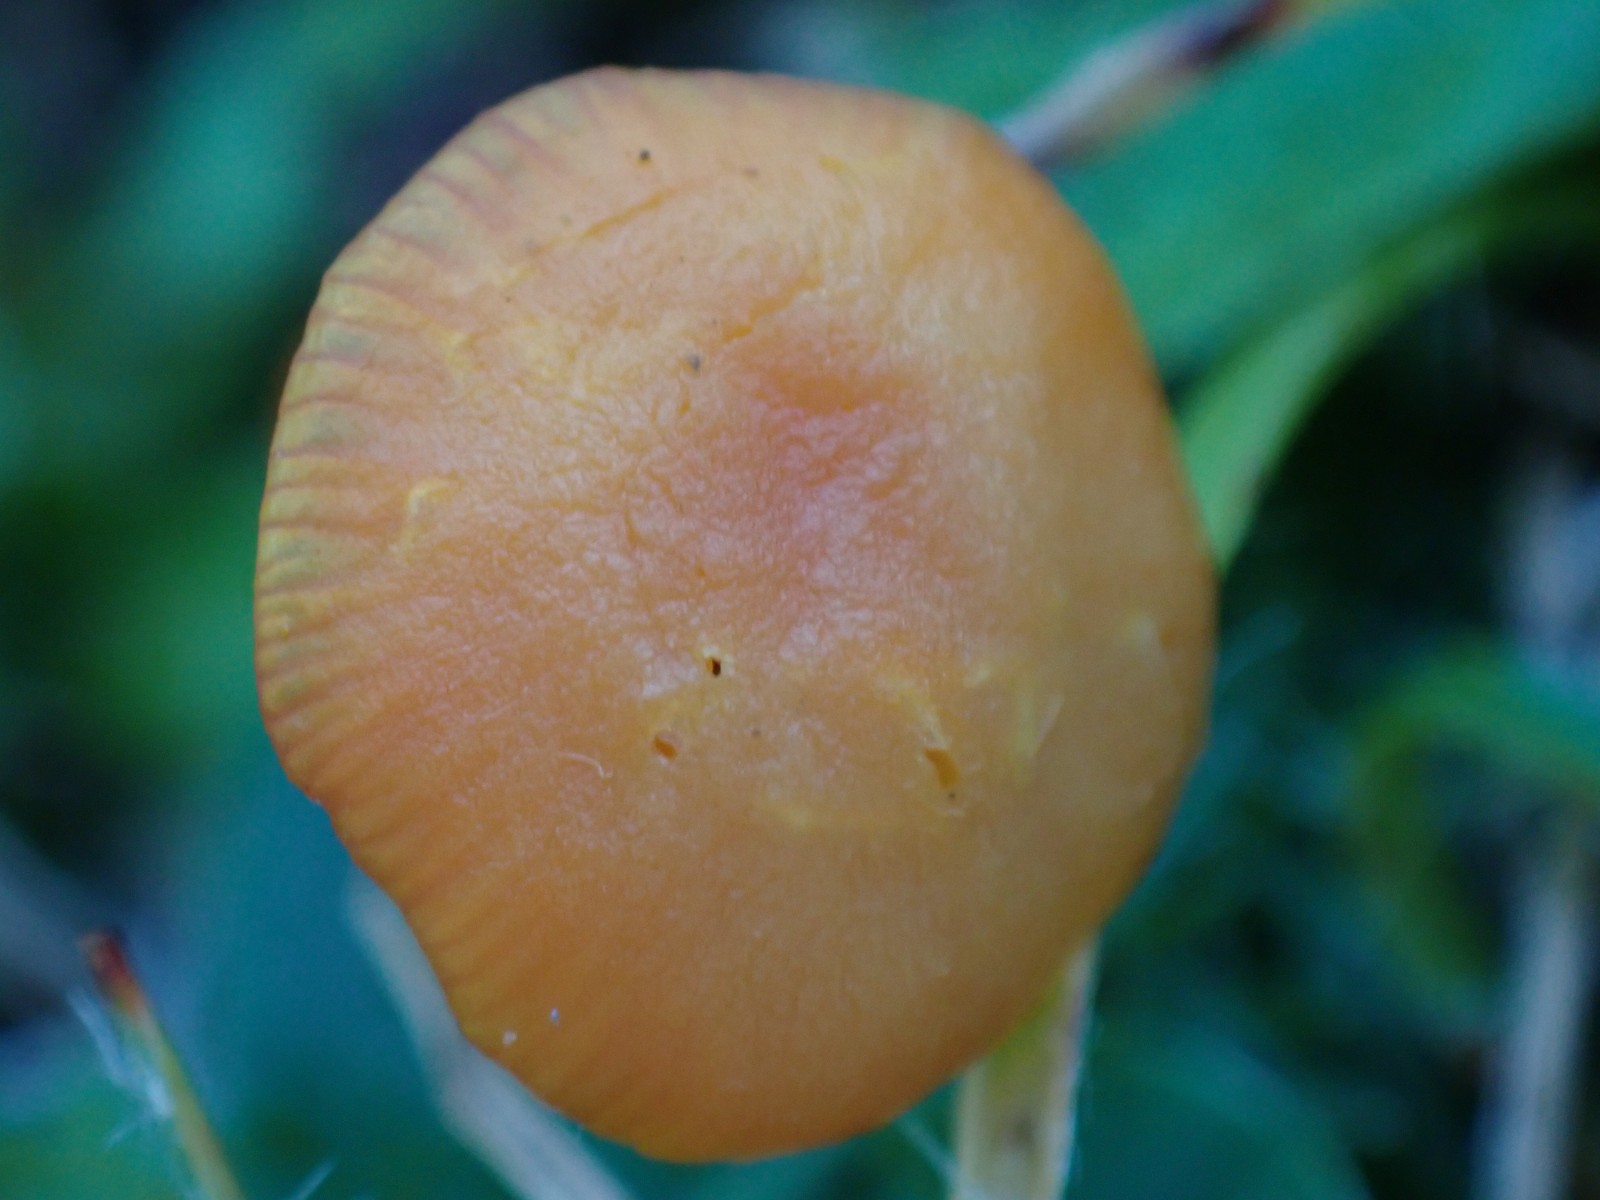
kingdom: Fungi
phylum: Basidiomycota
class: Agaricomycetes
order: Agaricales
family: Hygrophoraceae
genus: Hygrocybe
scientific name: Hygrocybe
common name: vokshat
